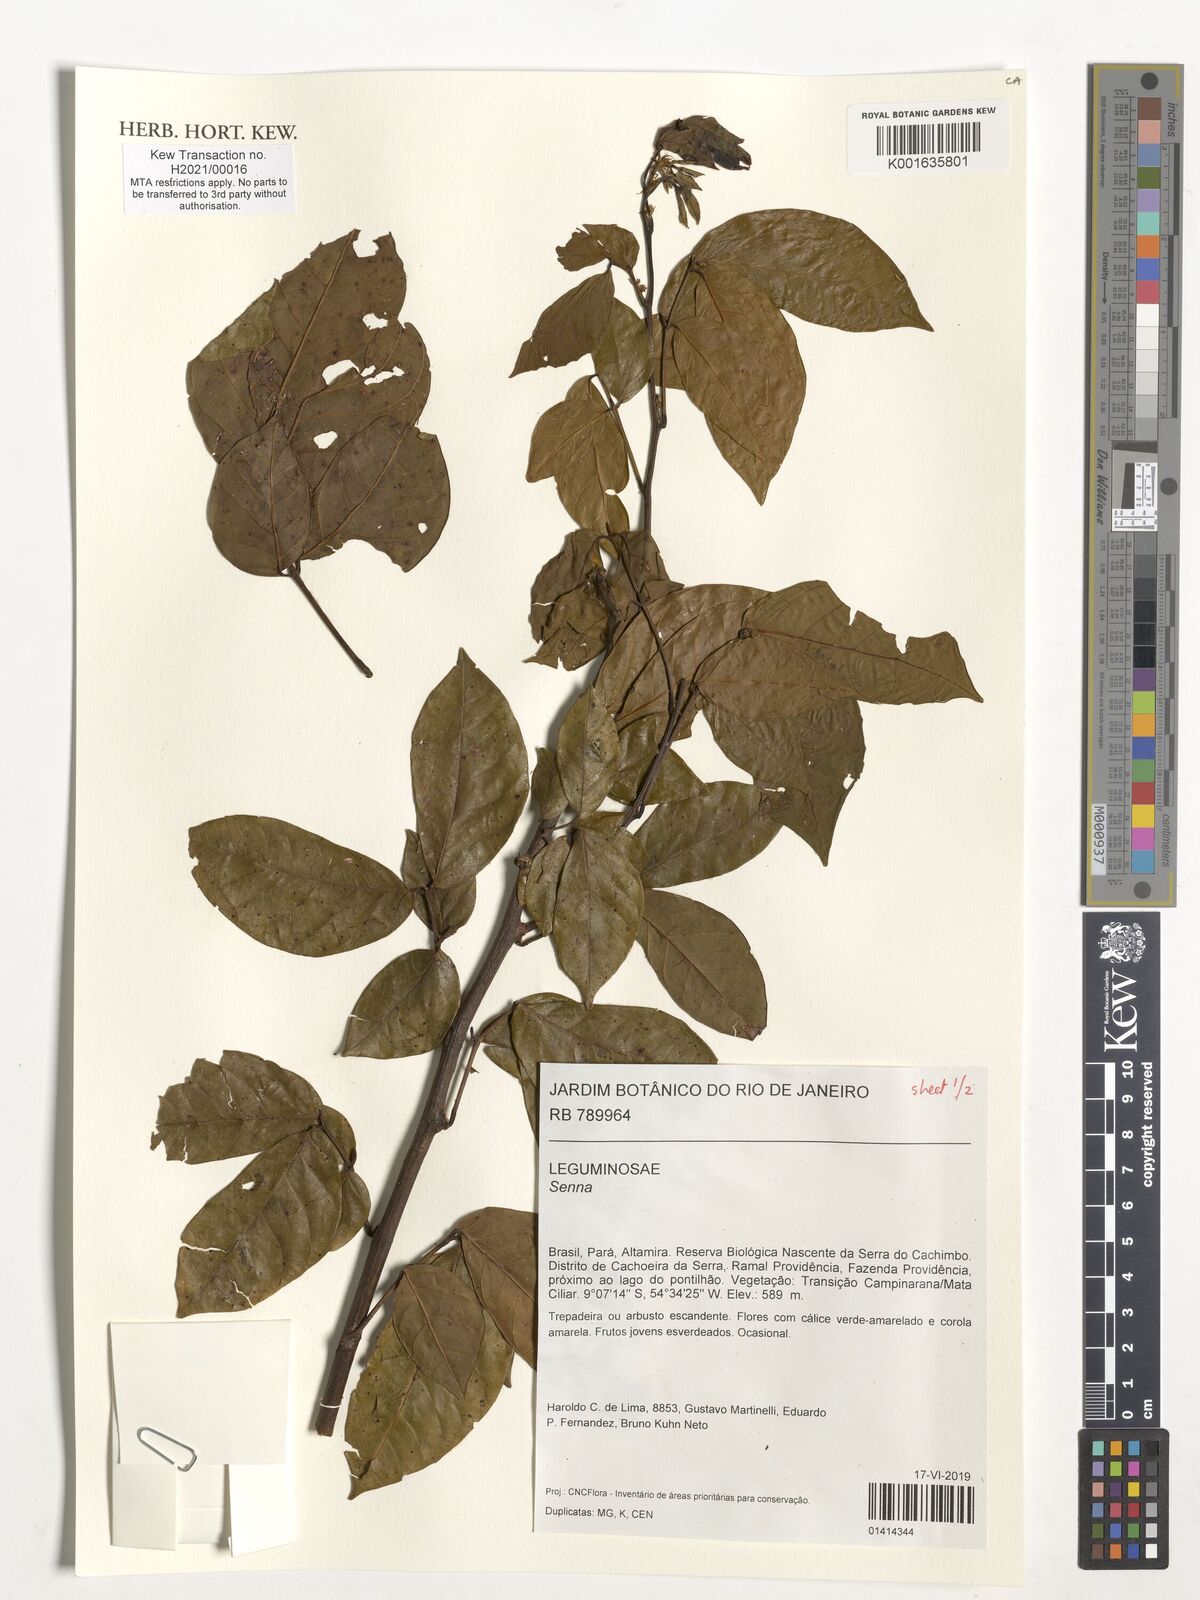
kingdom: Plantae
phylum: Tracheophyta
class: Magnoliopsida
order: Fabales
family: Fabaceae
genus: Senna
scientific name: Senna
